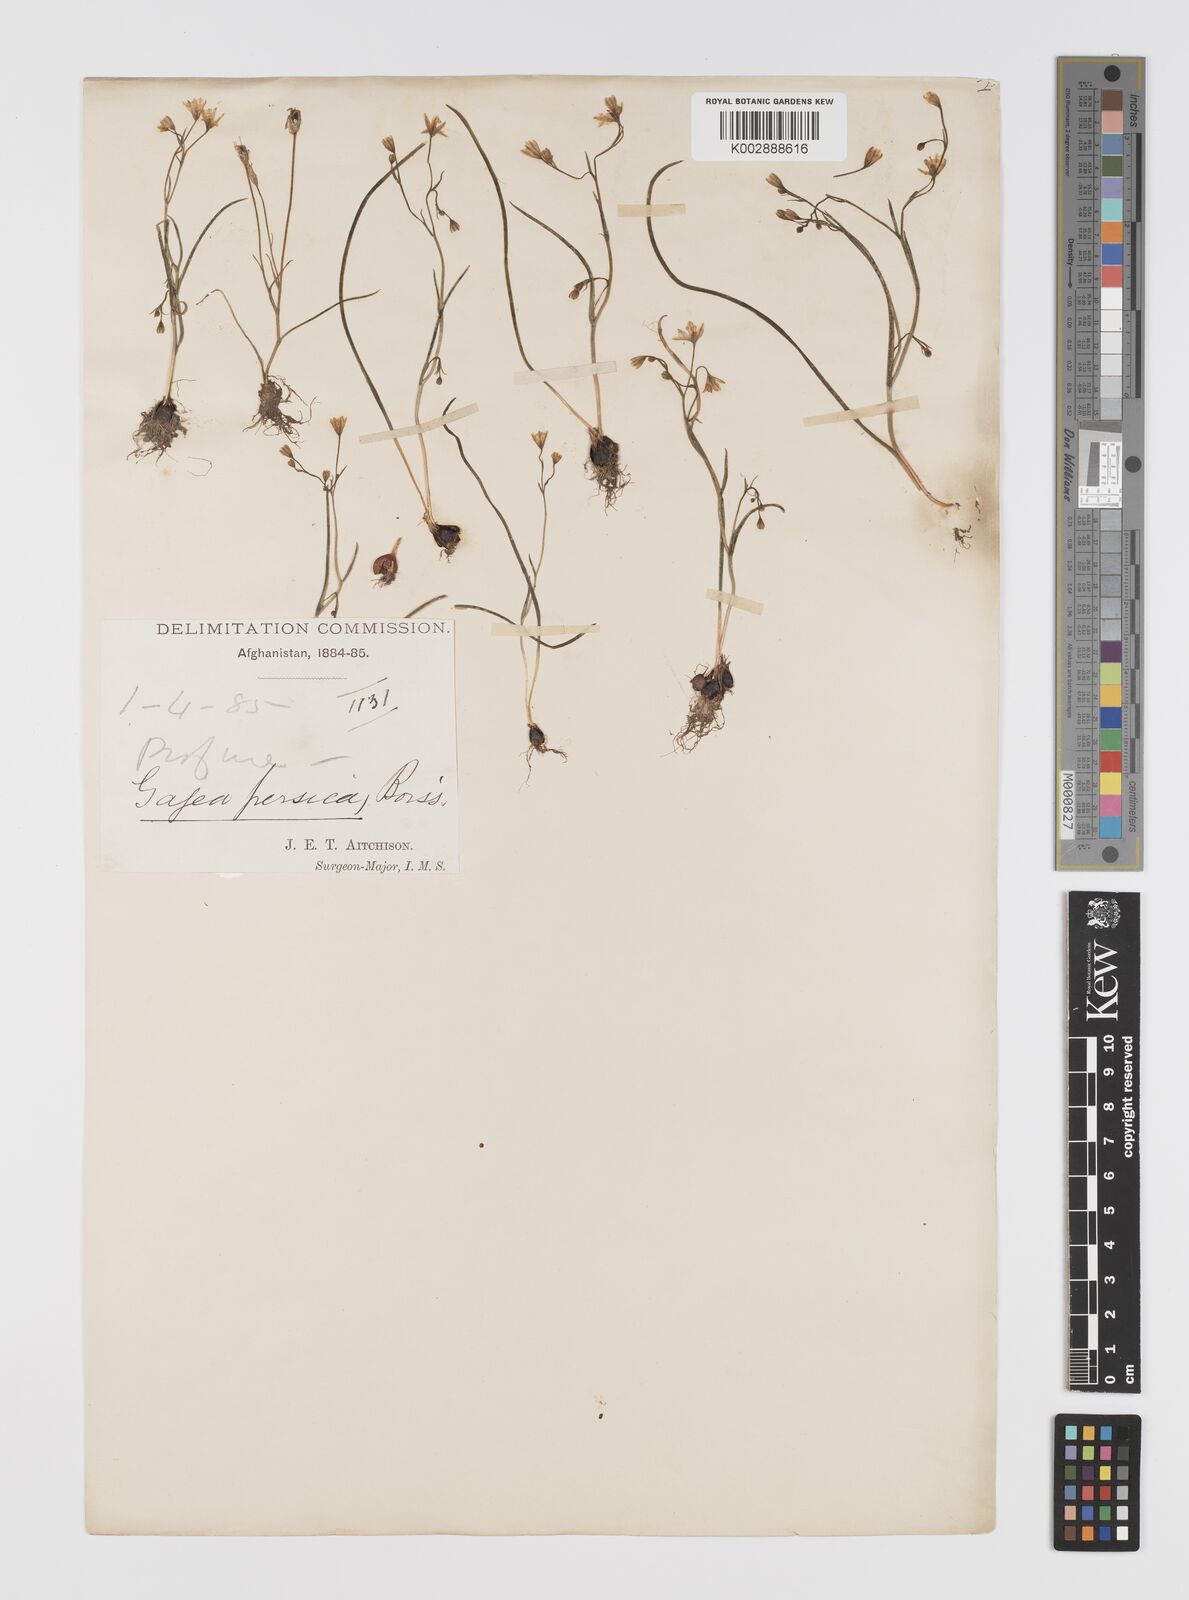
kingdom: Plantae
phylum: Tracheophyta
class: Liliopsida
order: Liliales
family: Liliaceae
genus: Gagea
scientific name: Gagea olgae
